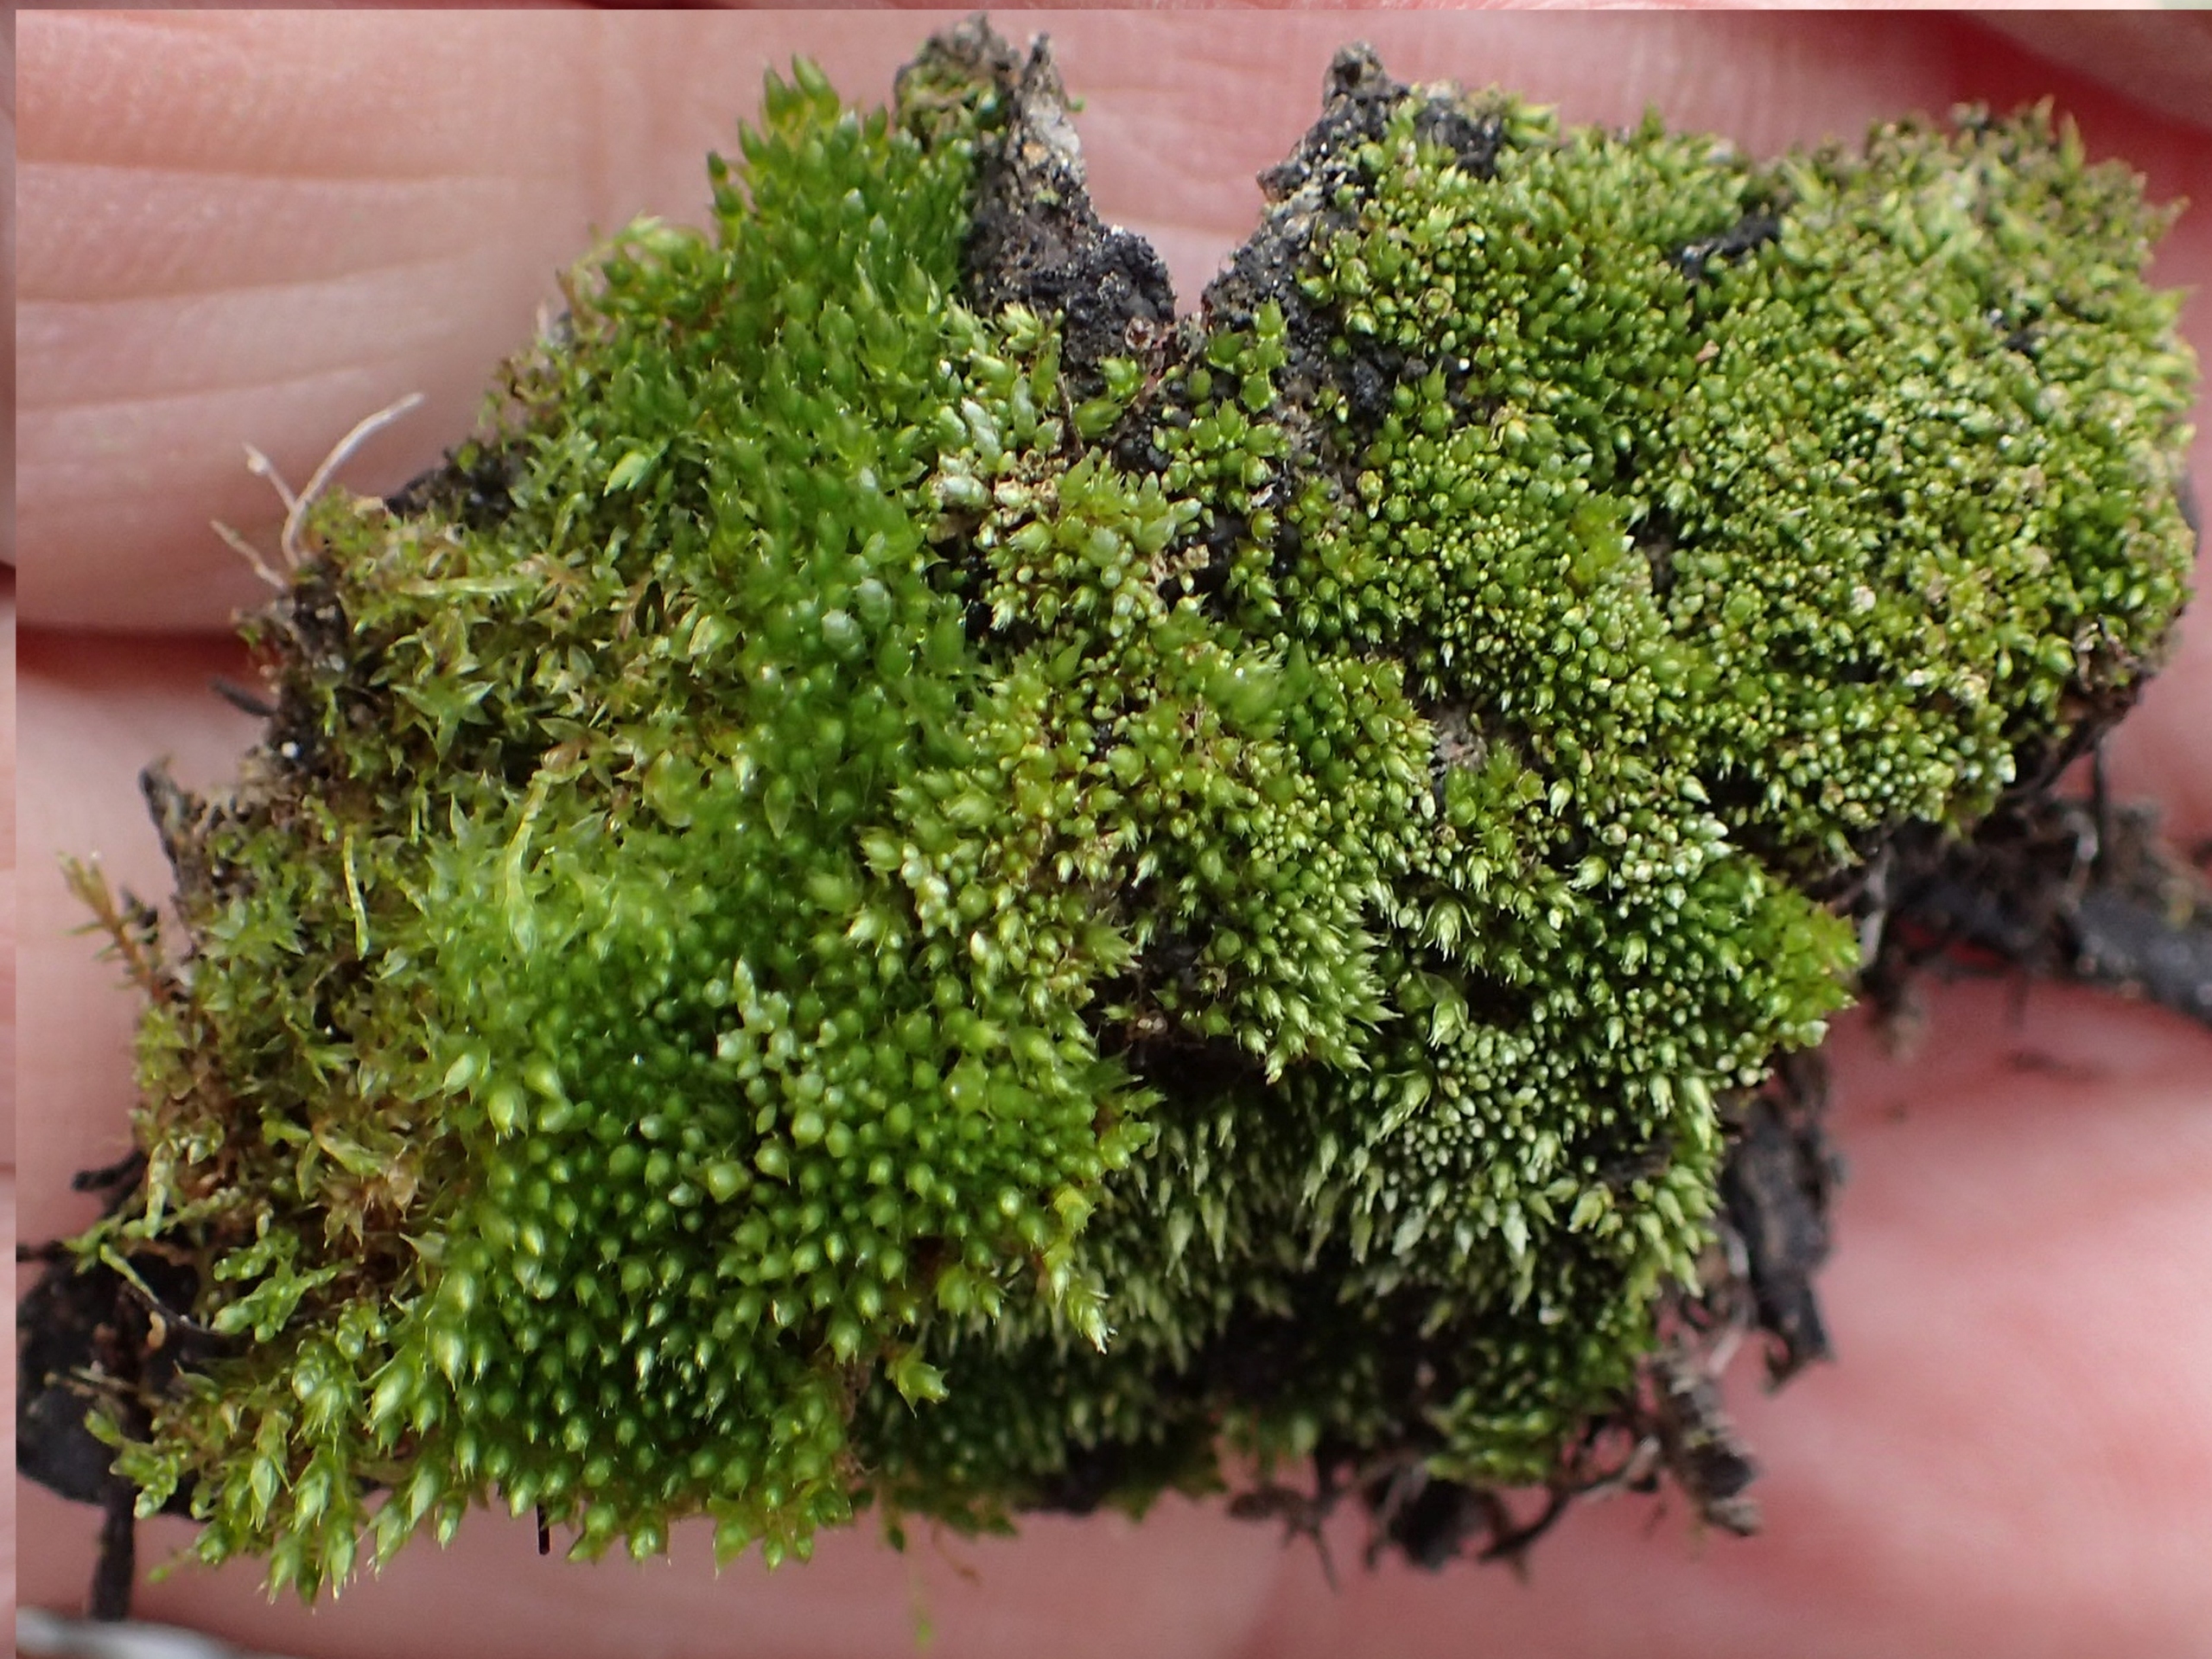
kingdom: Plantae
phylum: Bryophyta
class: Bryopsida
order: Bryales
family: Bryaceae
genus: Bryum
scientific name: Bryum argenteum
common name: Sølv-bryum
